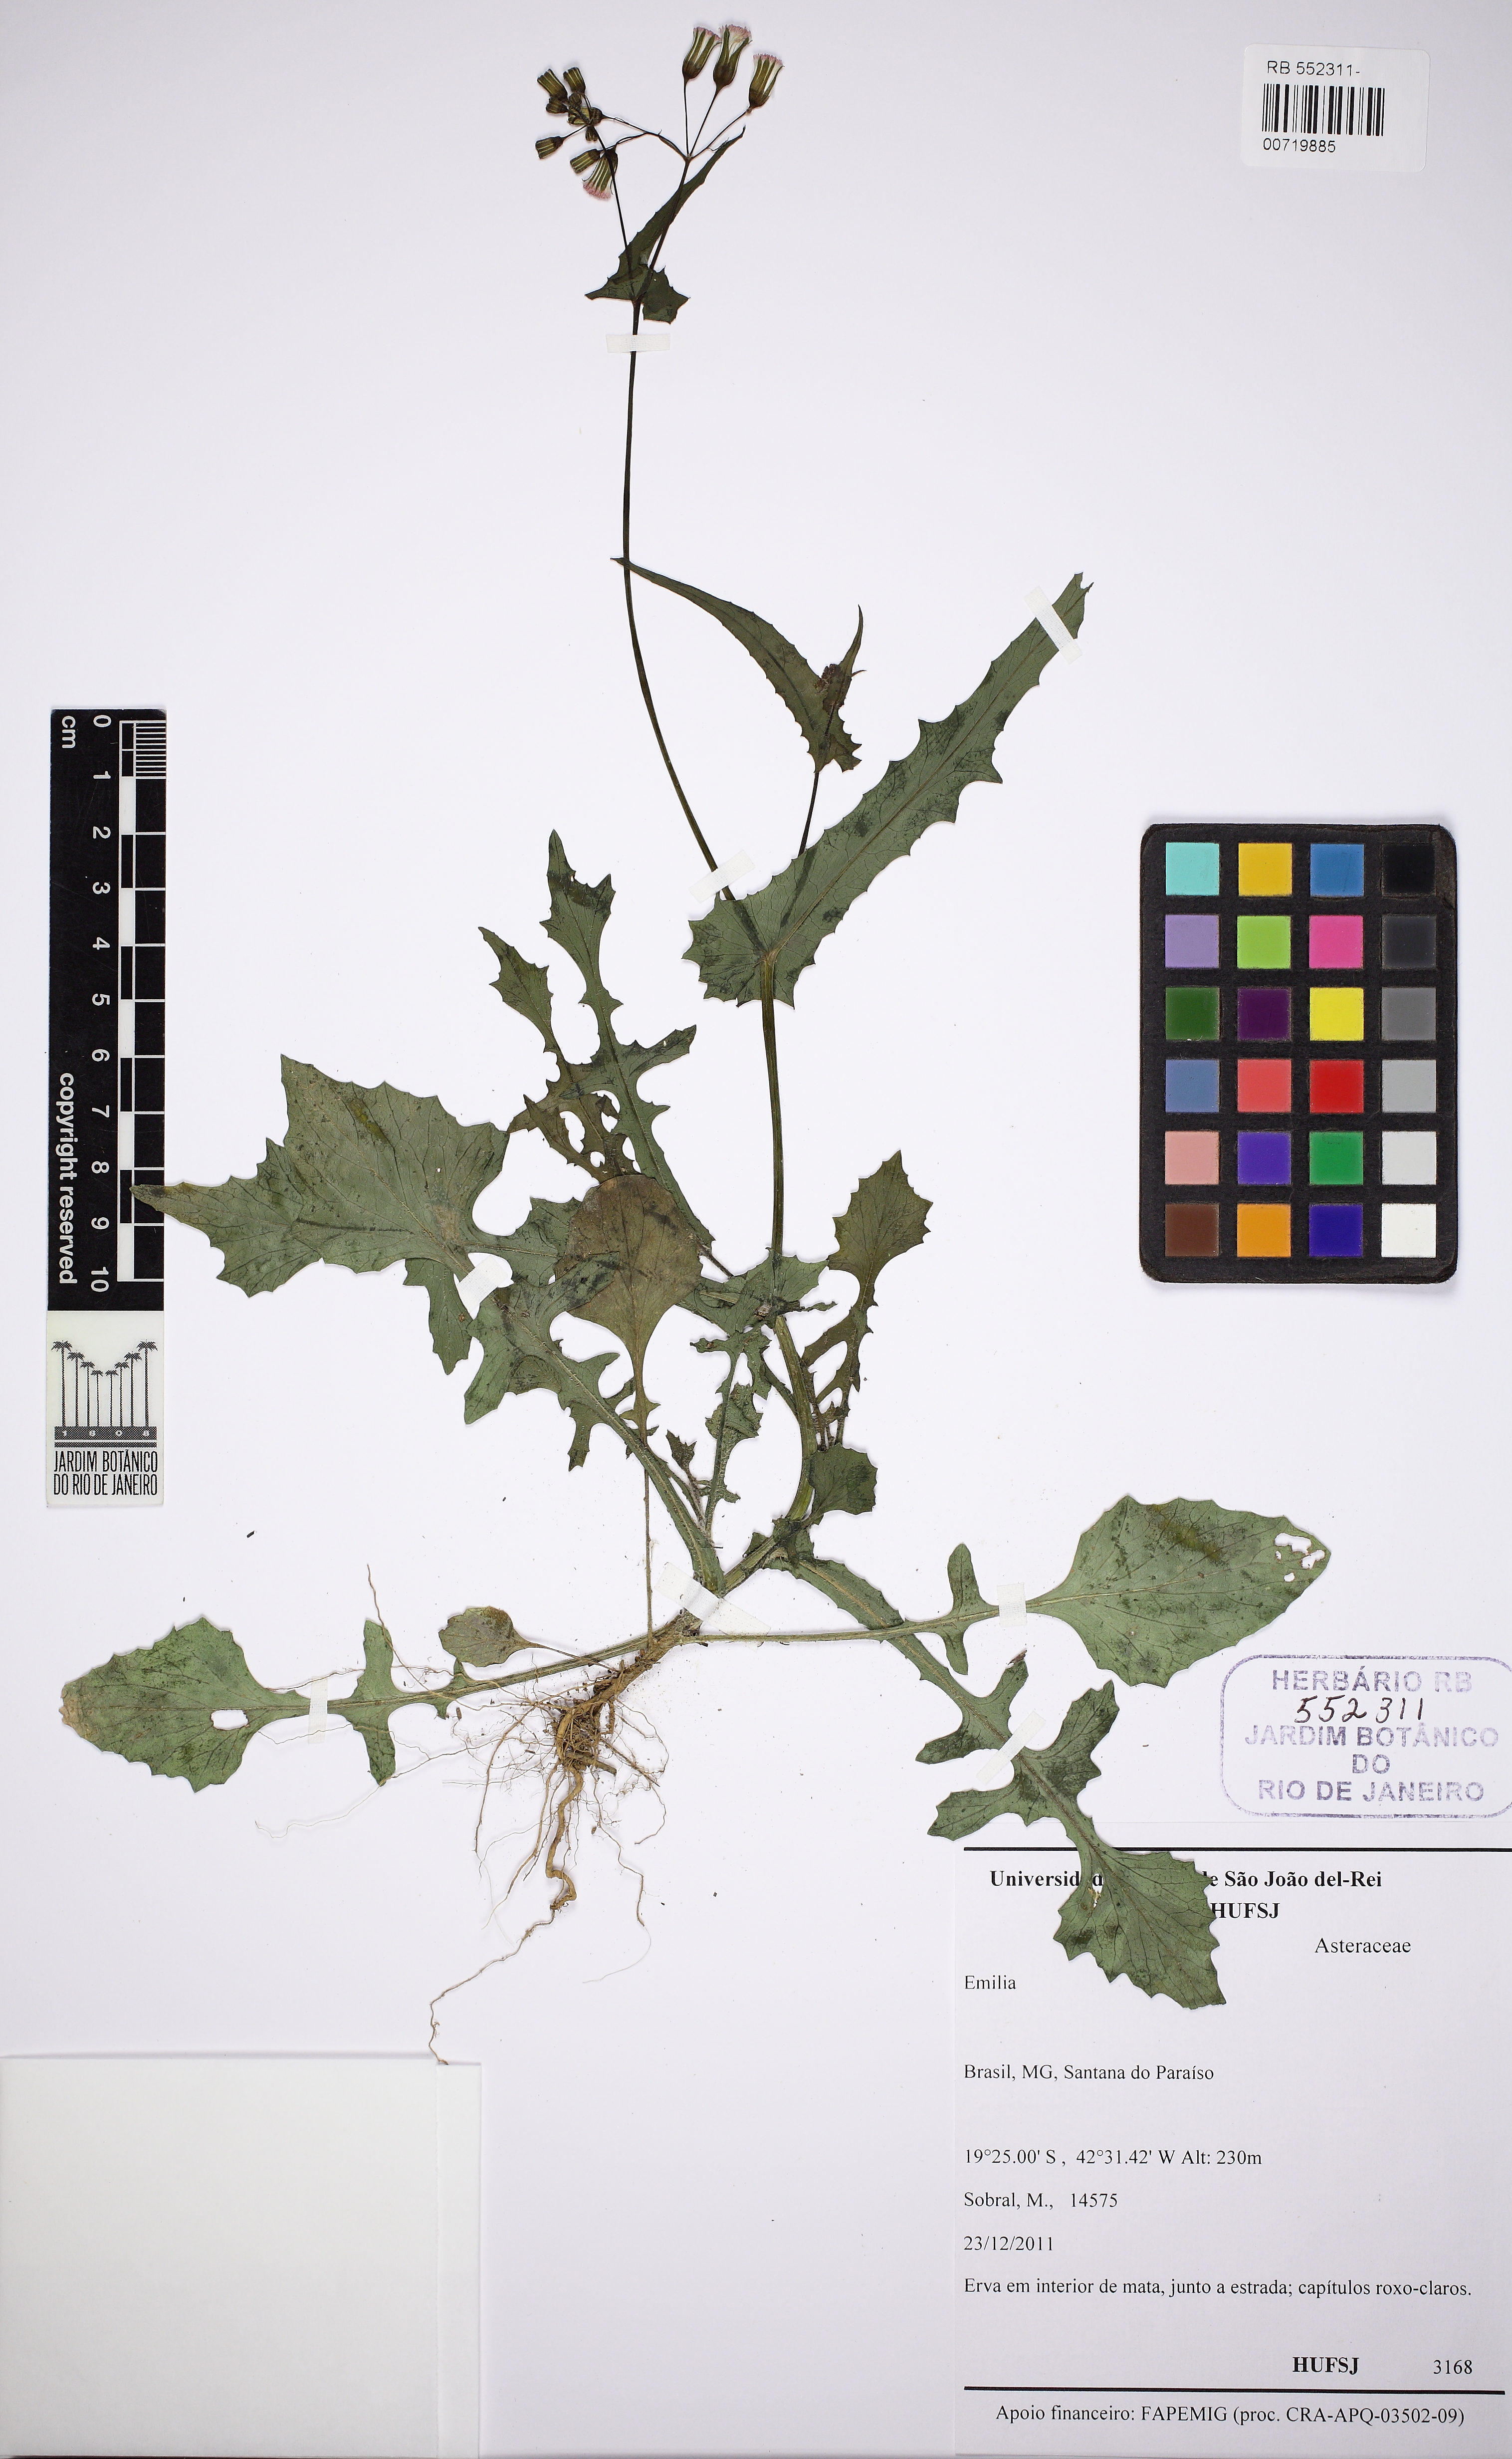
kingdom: Plantae
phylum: Tracheophyta
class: Magnoliopsida
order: Asterales
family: Asteraceae
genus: Emilia
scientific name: Emilia
